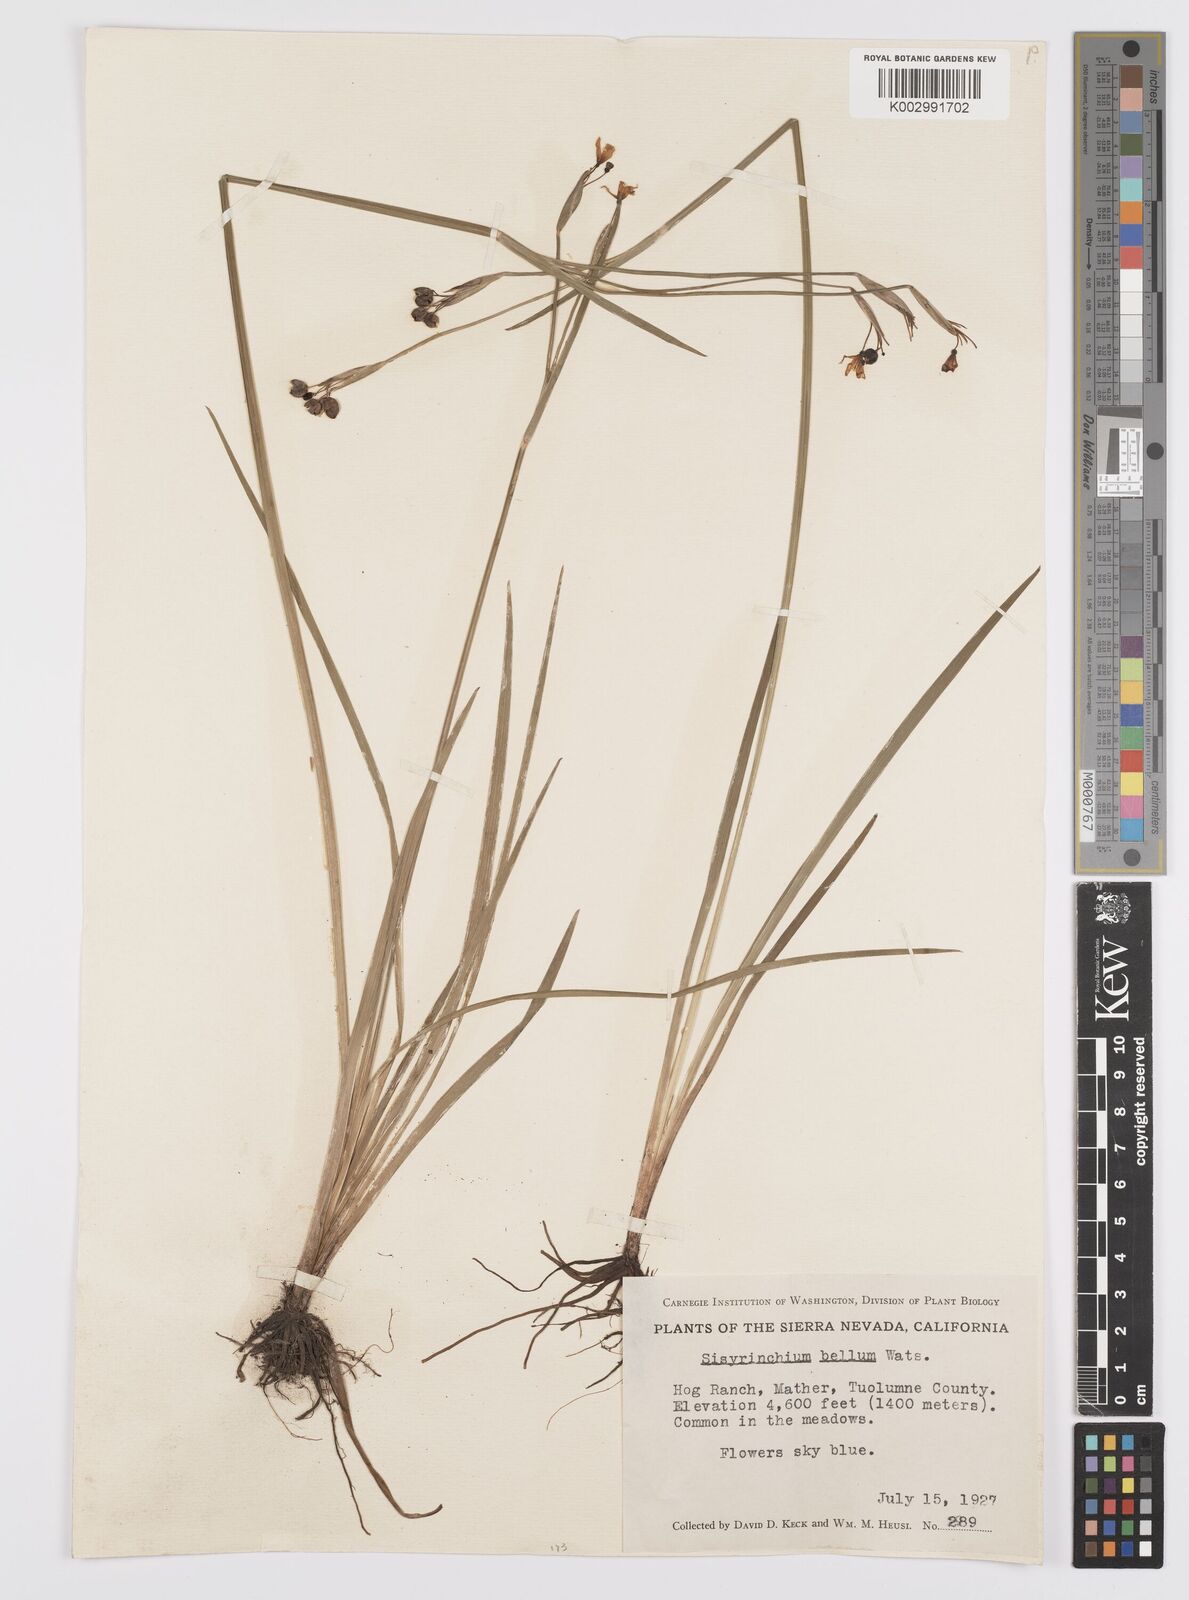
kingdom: Plantae
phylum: Tracheophyta
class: Liliopsida
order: Asparagales
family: Iridaceae
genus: Sisyrinchium
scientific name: Sisyrinchium bellum
